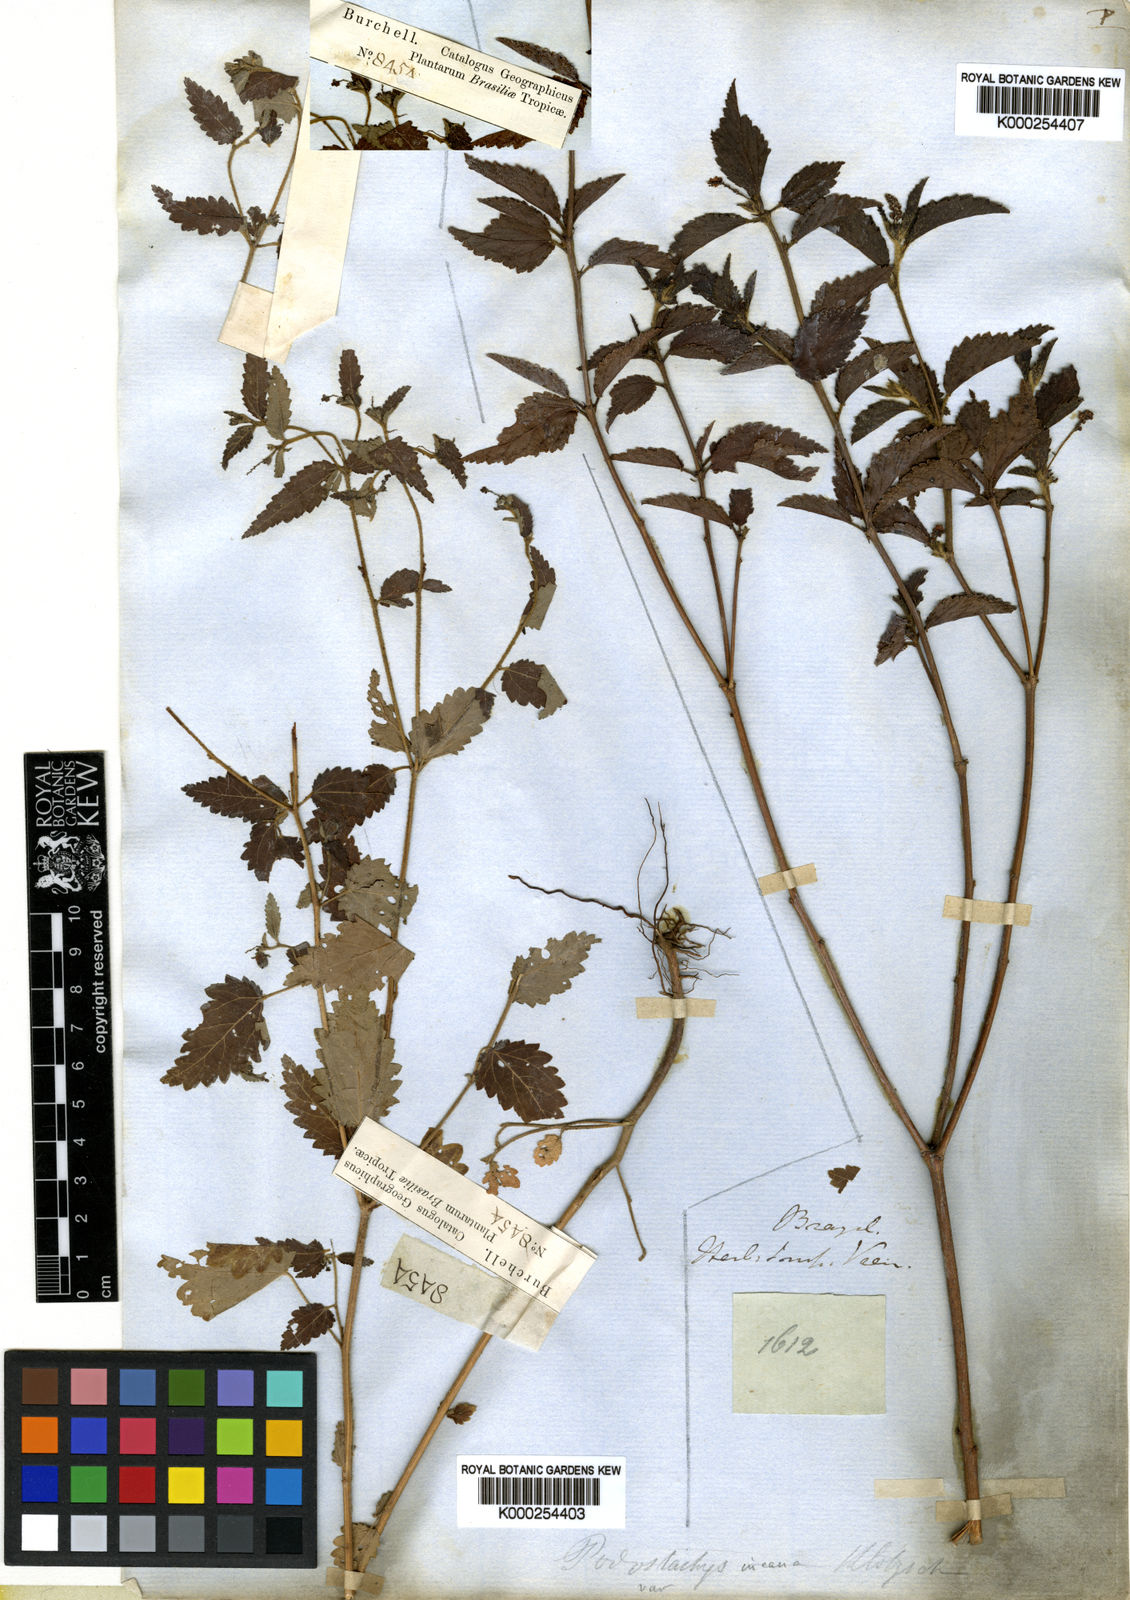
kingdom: Plantae
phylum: Tracheophyta
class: Magnoliopsida
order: Malpighiales
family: Euphorbiaceae
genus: Croton
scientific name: Croton
